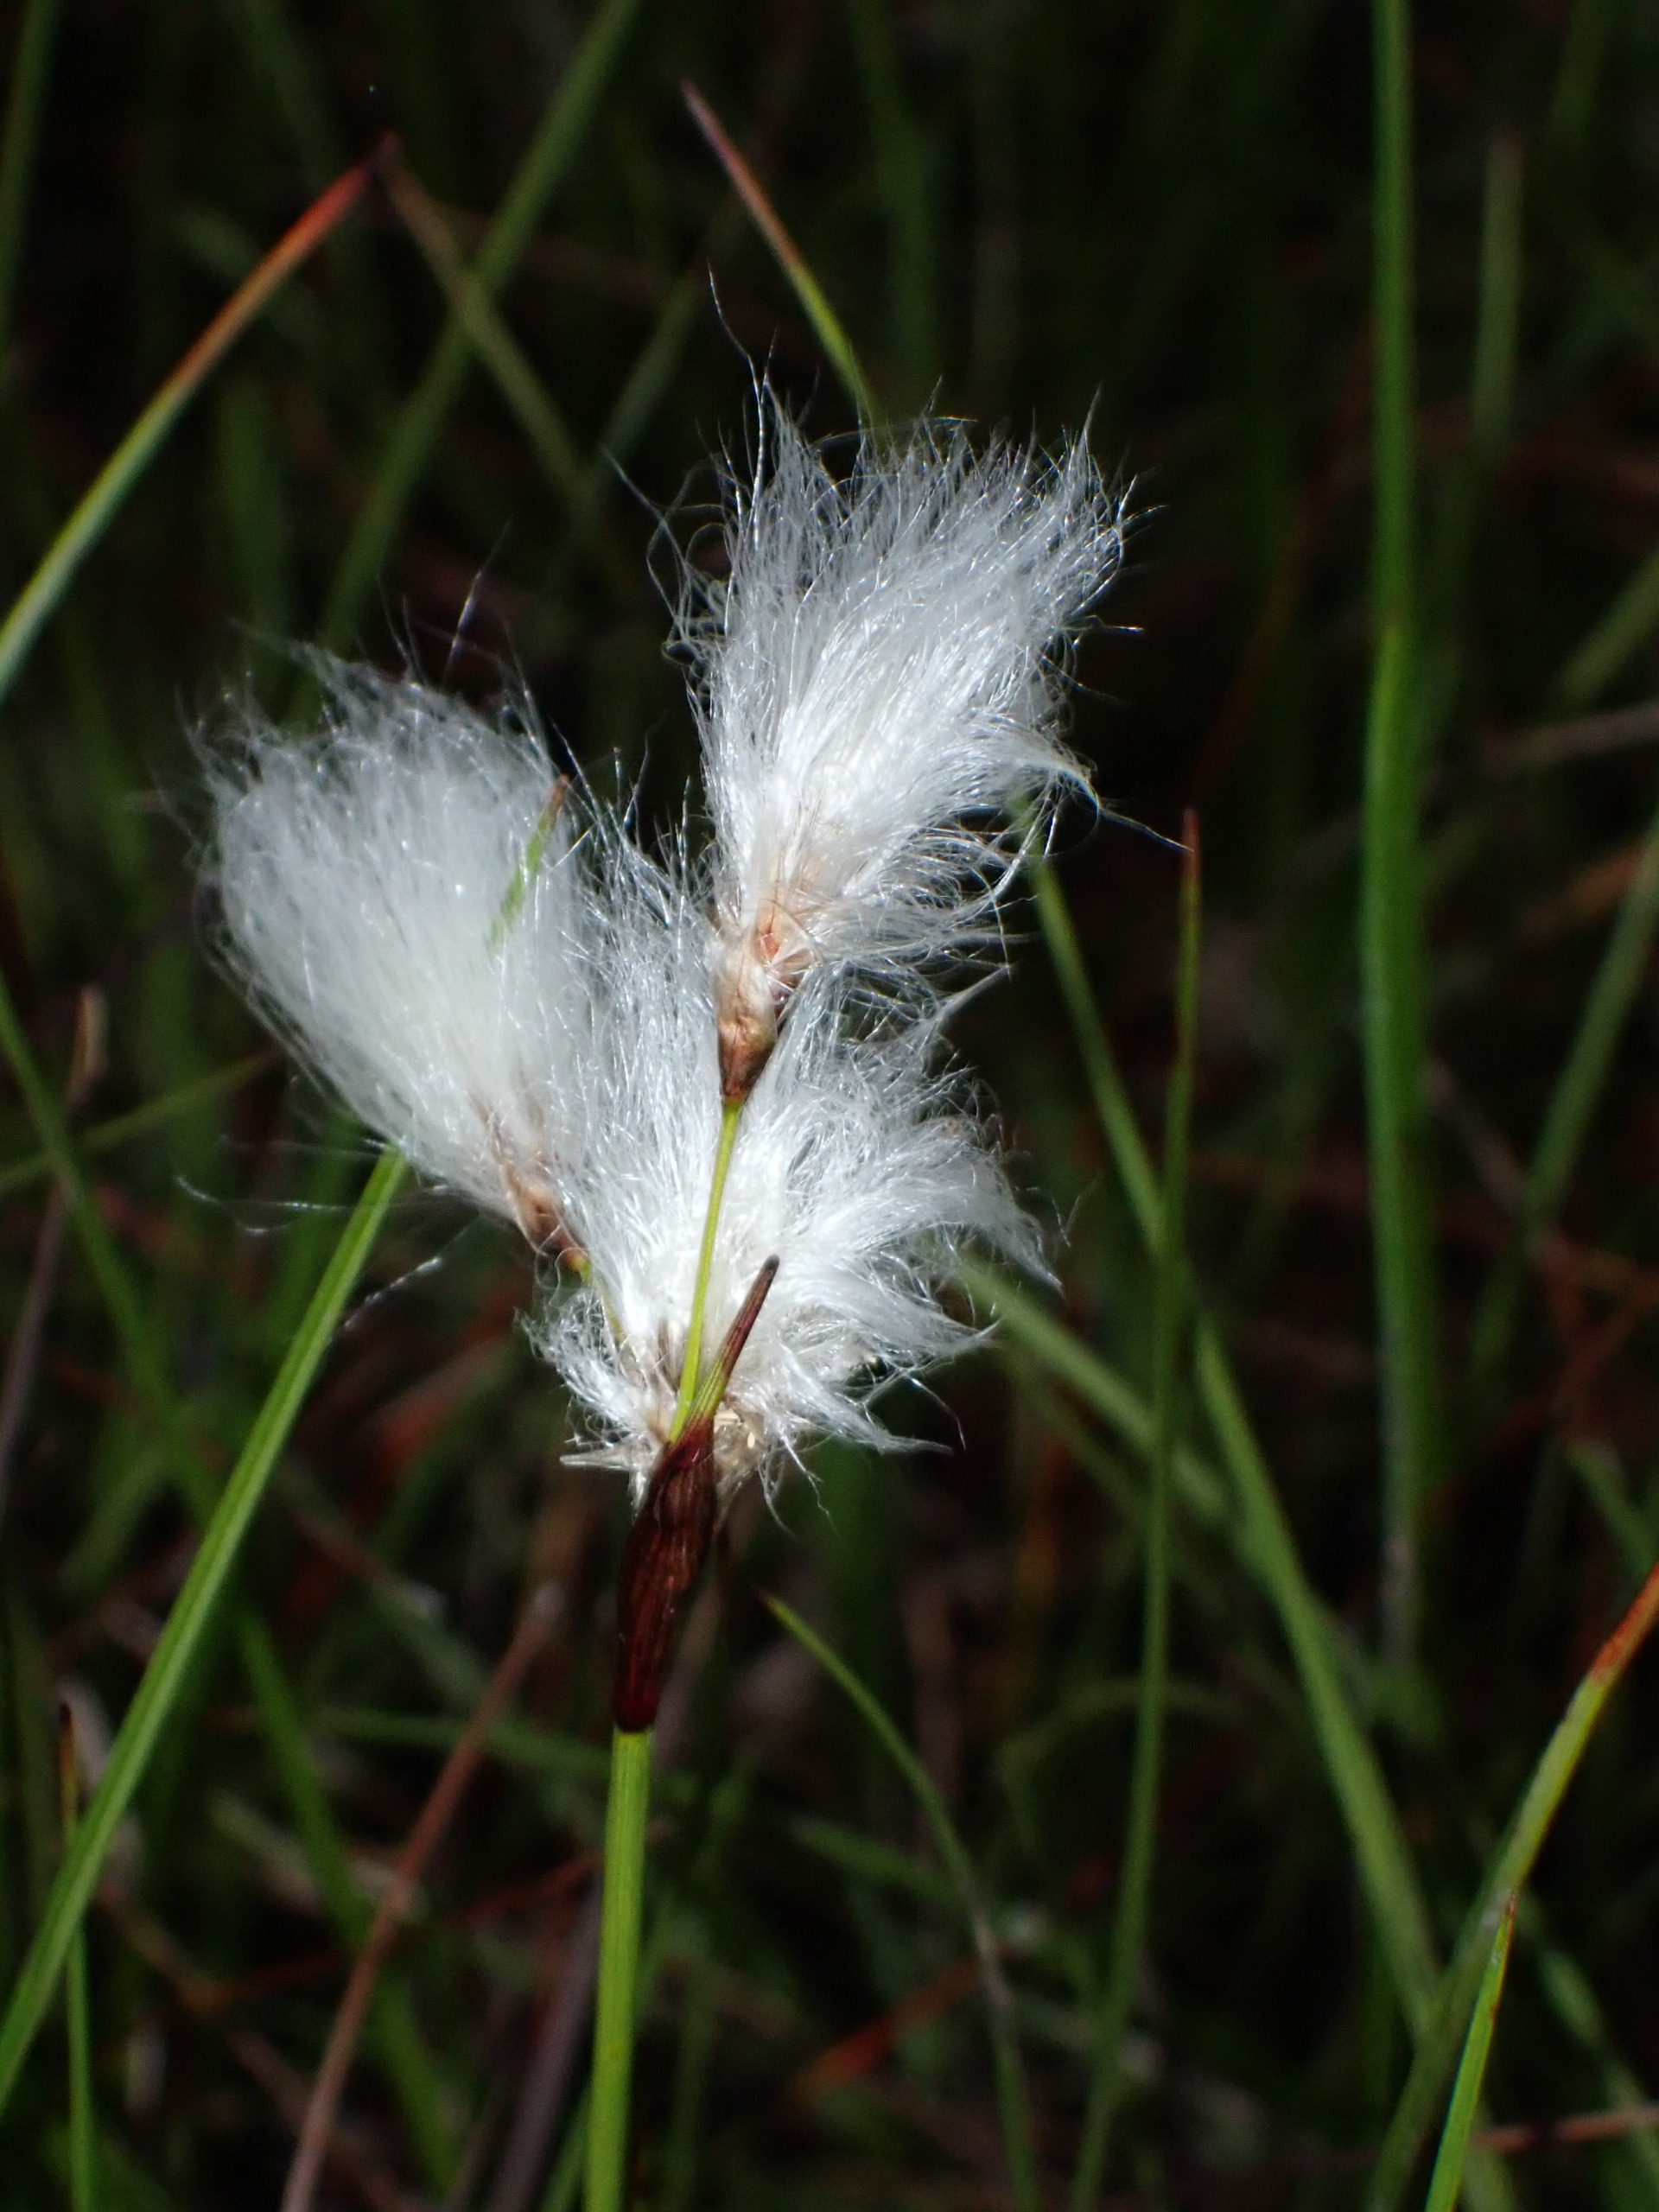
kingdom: Plantae
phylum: Tracheophyta
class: Liliopsida
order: Poales
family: Cyperaceae
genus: Eriophorum
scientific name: Eriophorum angustifolium
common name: Smalbladet kæruld
